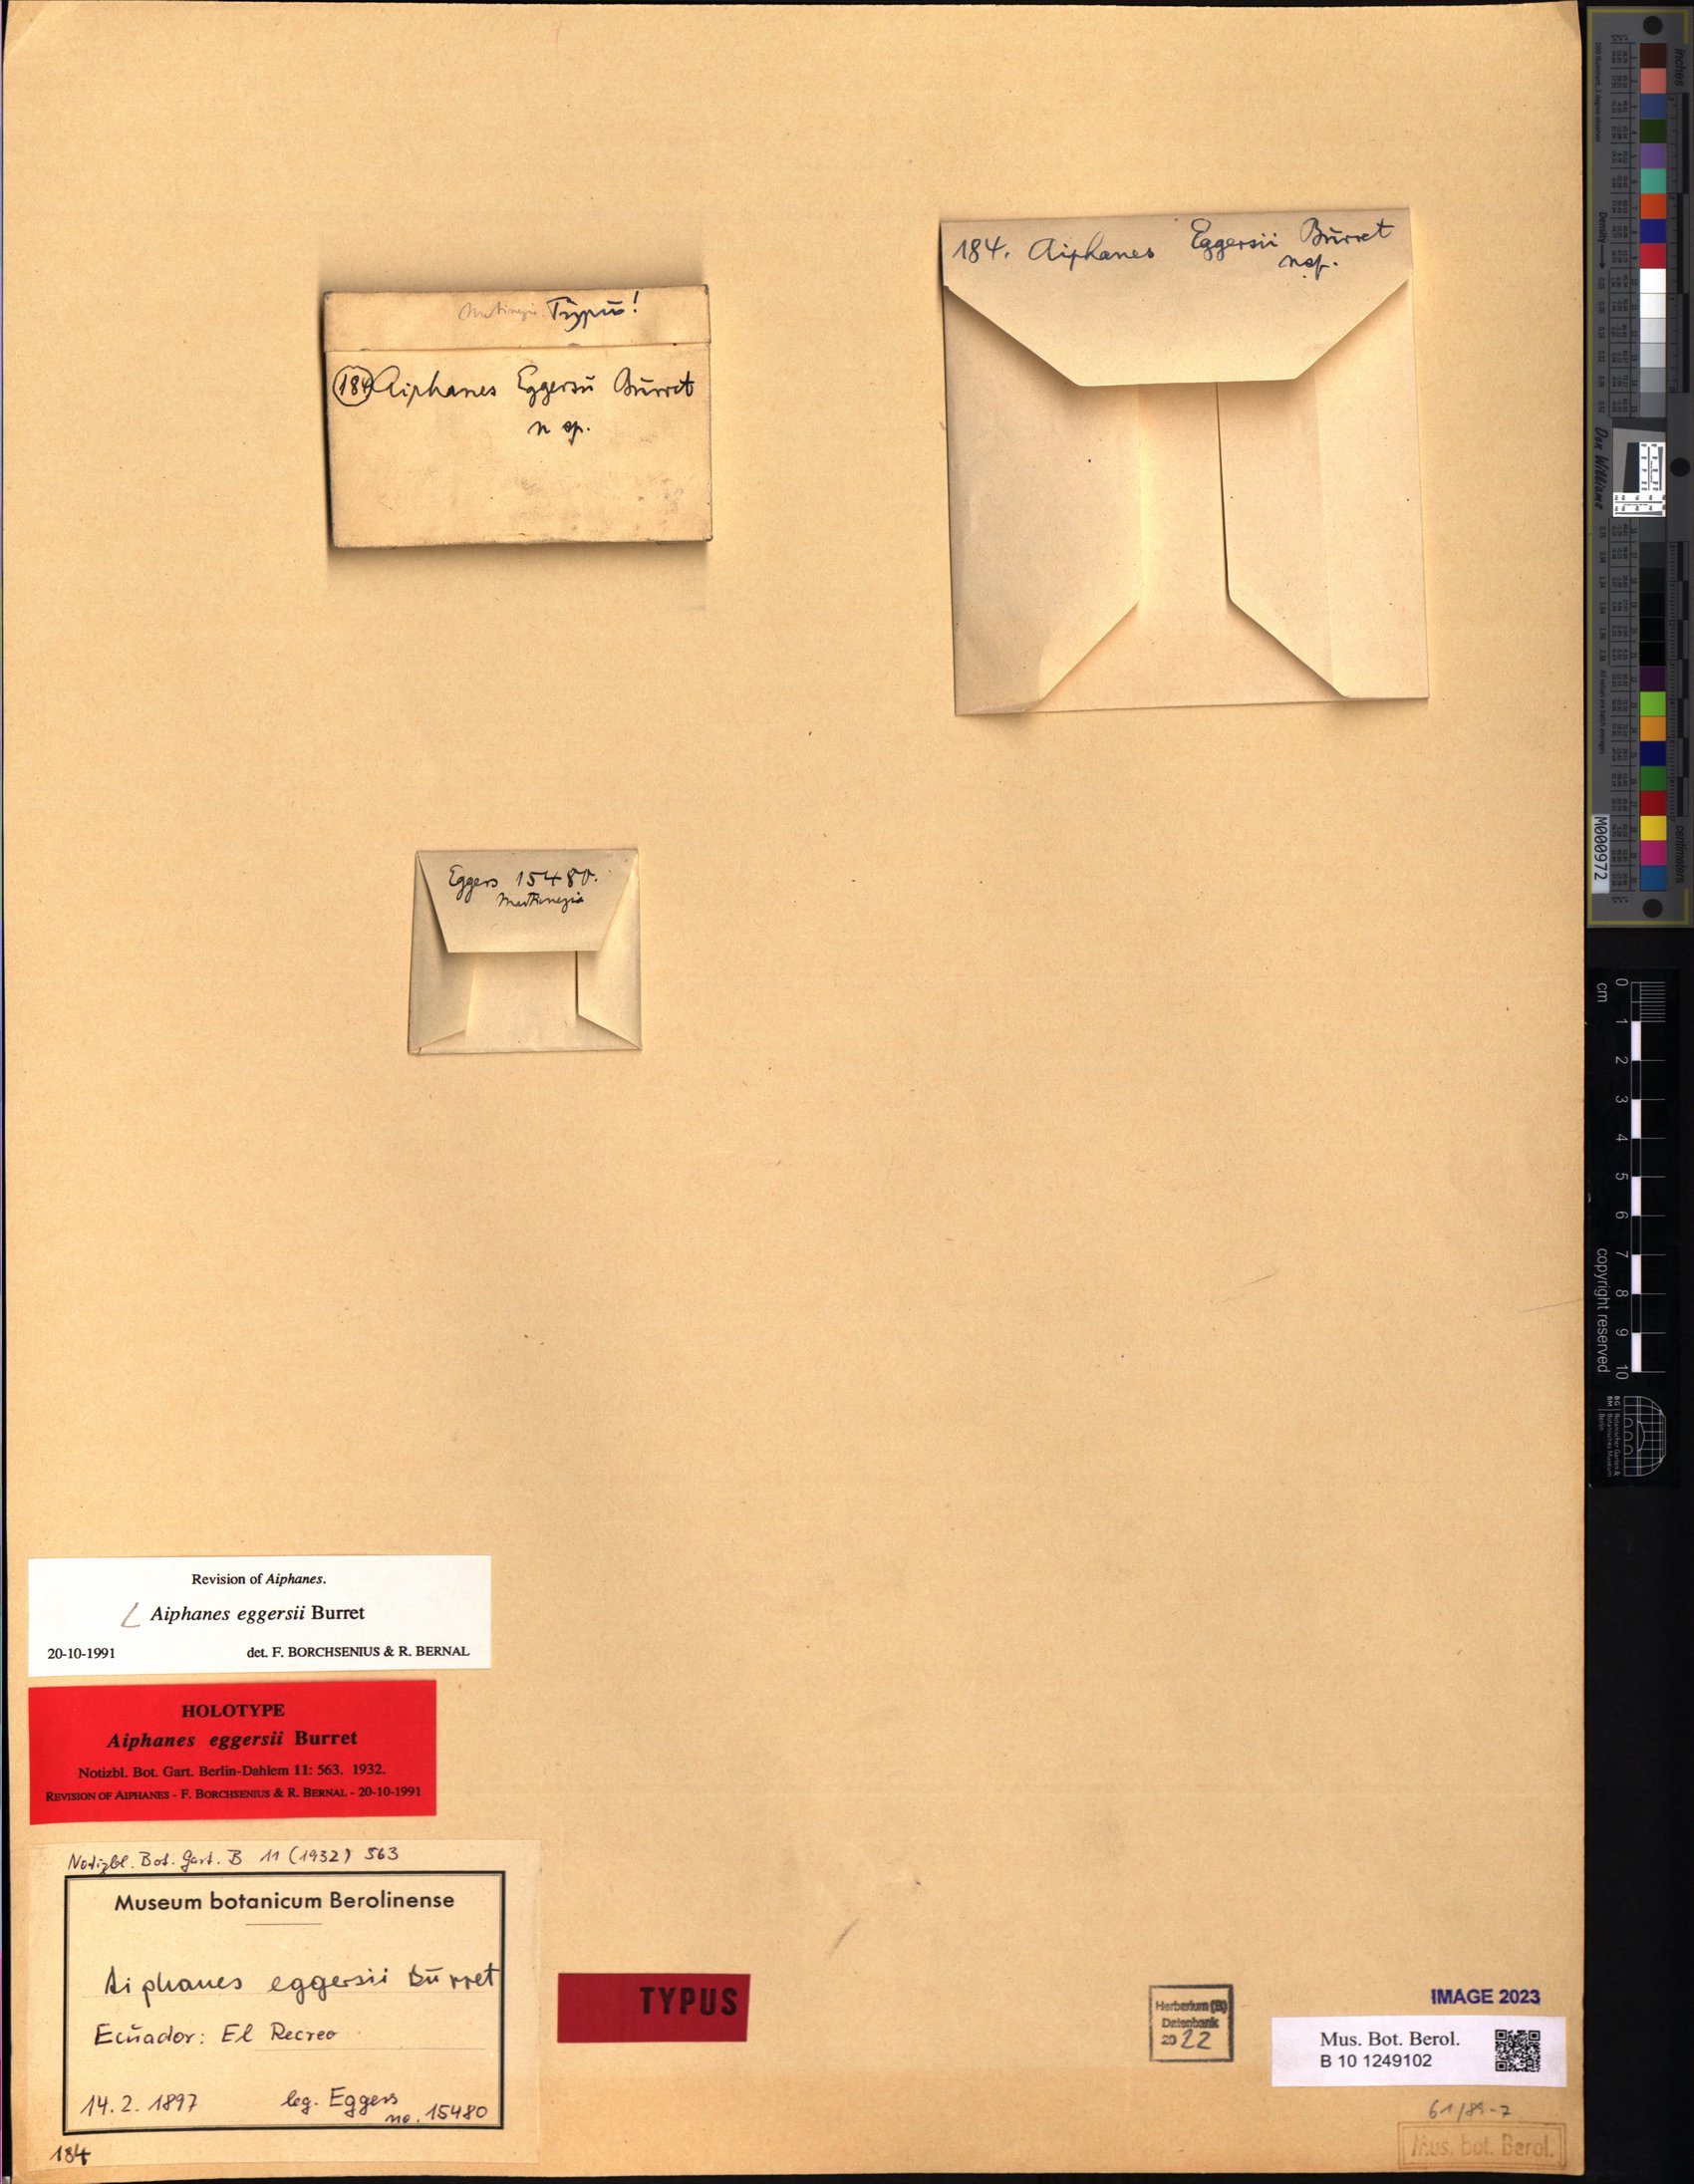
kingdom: Plantae
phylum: Tracheophyta
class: Liliopsida
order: Arecales
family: Arecaceae
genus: Aiphanes
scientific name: Aiphanes eggersii
